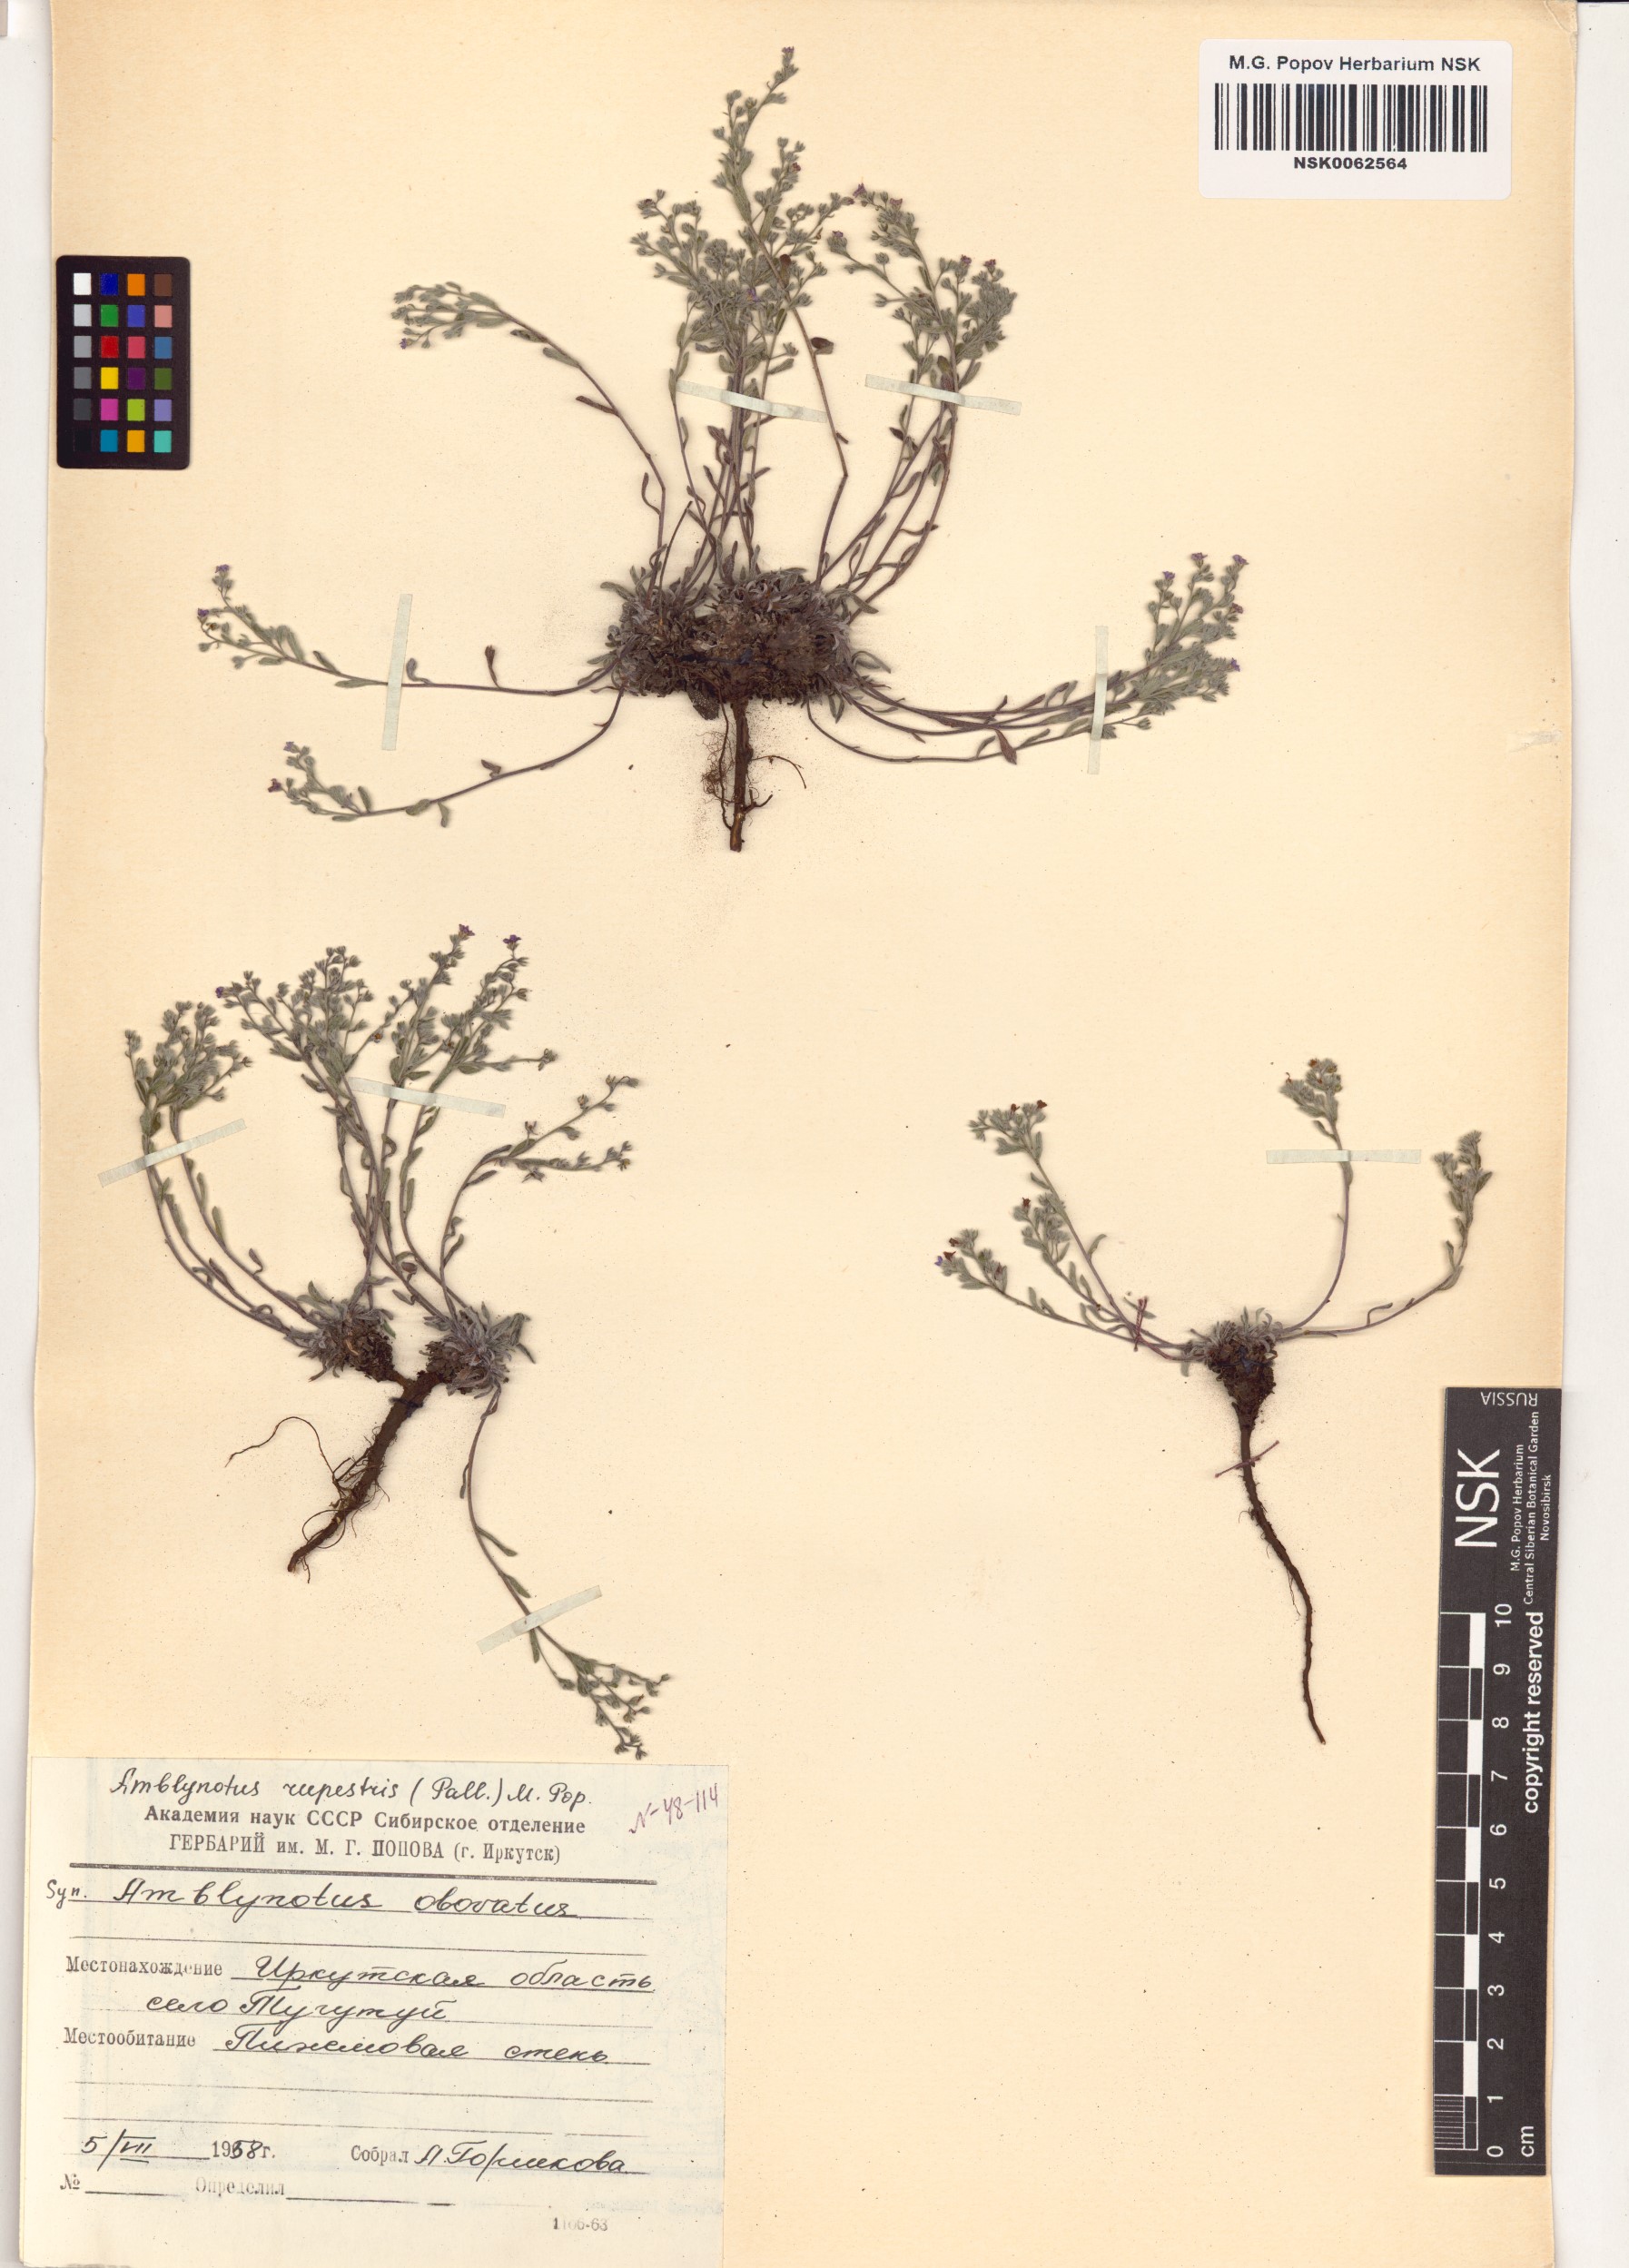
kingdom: Plantae
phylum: Tracheophyta
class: Magnoliopsida
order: Boraginales
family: Boraginaceae
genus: Eritrichium
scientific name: Eritrichium rupestre
